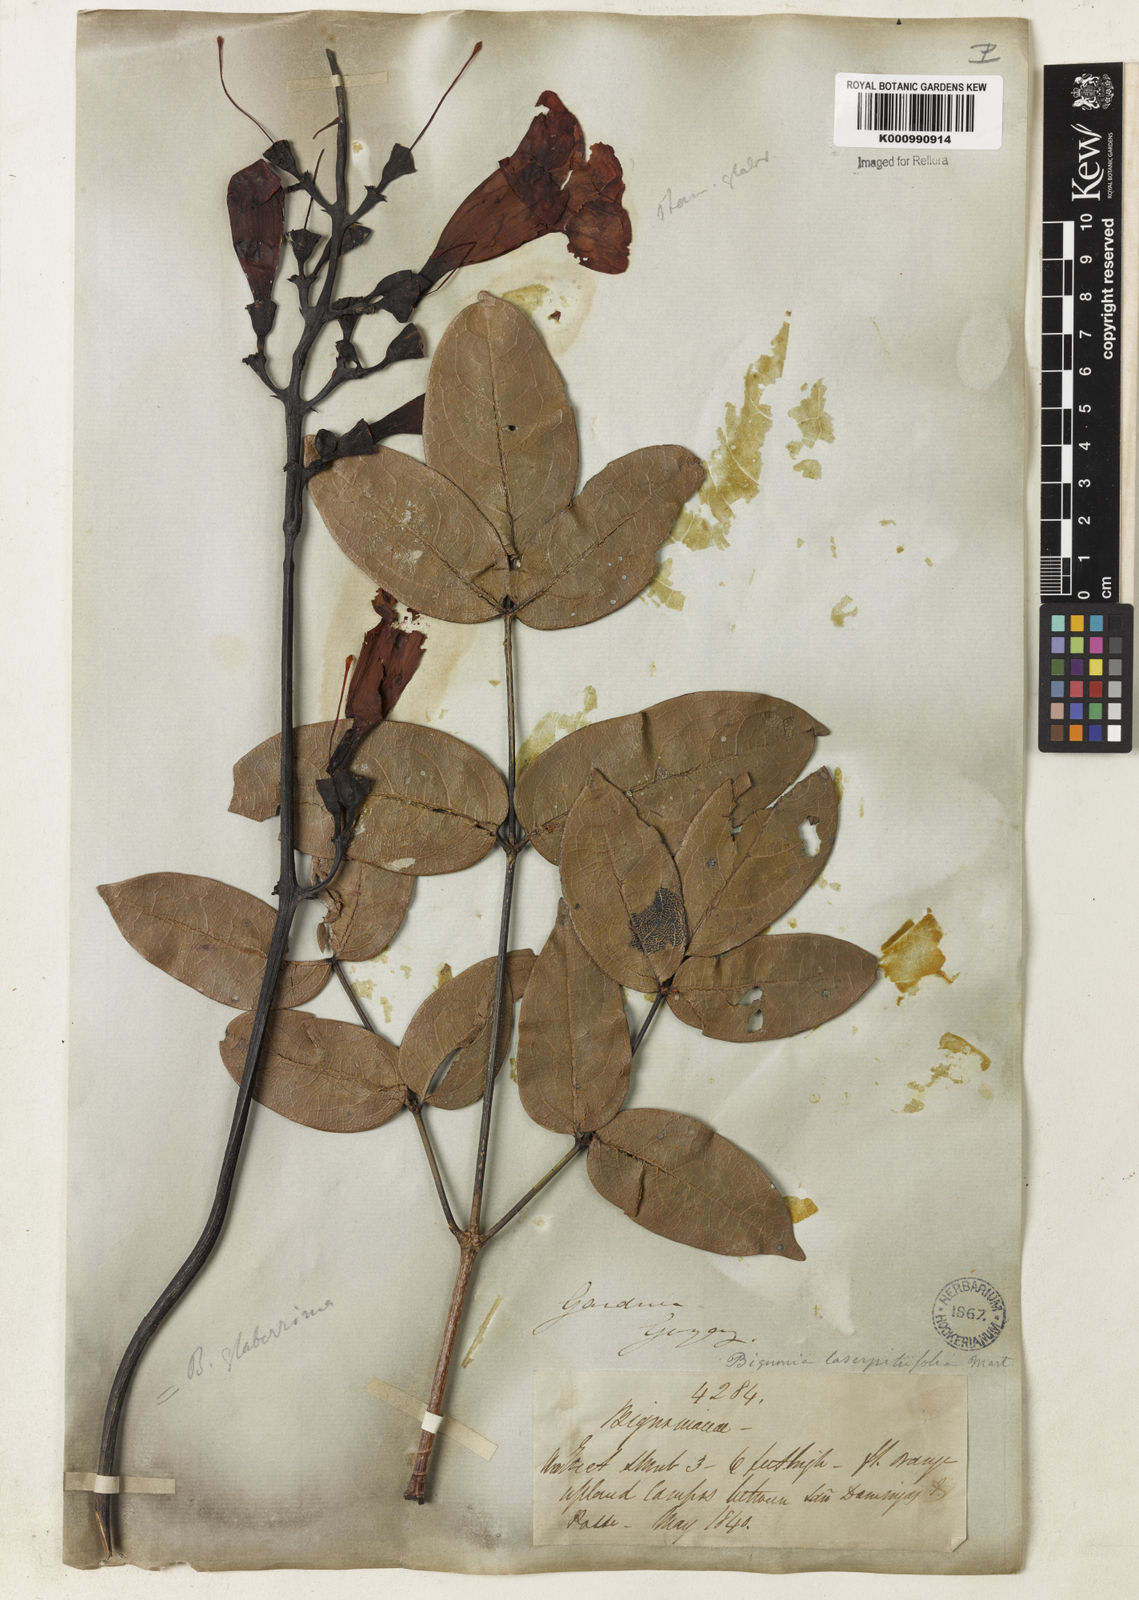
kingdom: Plantae
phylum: Tracheophyta
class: Magnoliopsida
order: Lamiales
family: Bignoniaceae
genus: Adenocalymma
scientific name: Adenocalymma pedunculatum
